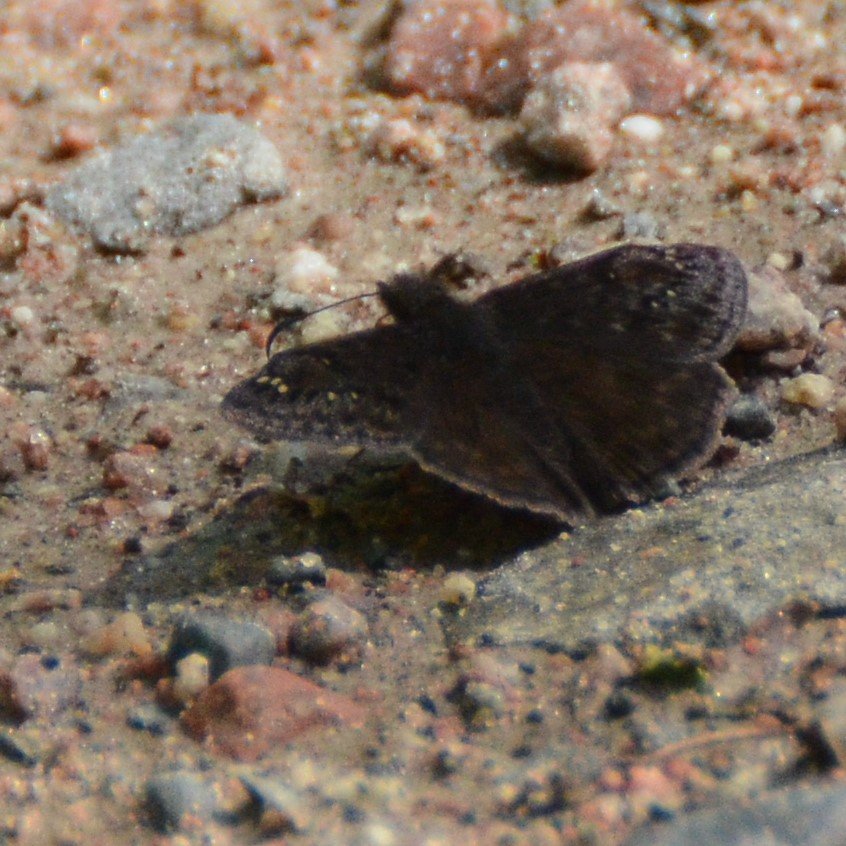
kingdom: Animalia
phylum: Arthropoda
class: Insecta
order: Lepidoptera
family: Hesperiidae
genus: Gesta
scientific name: Gesta
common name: Columbine Duskywing
